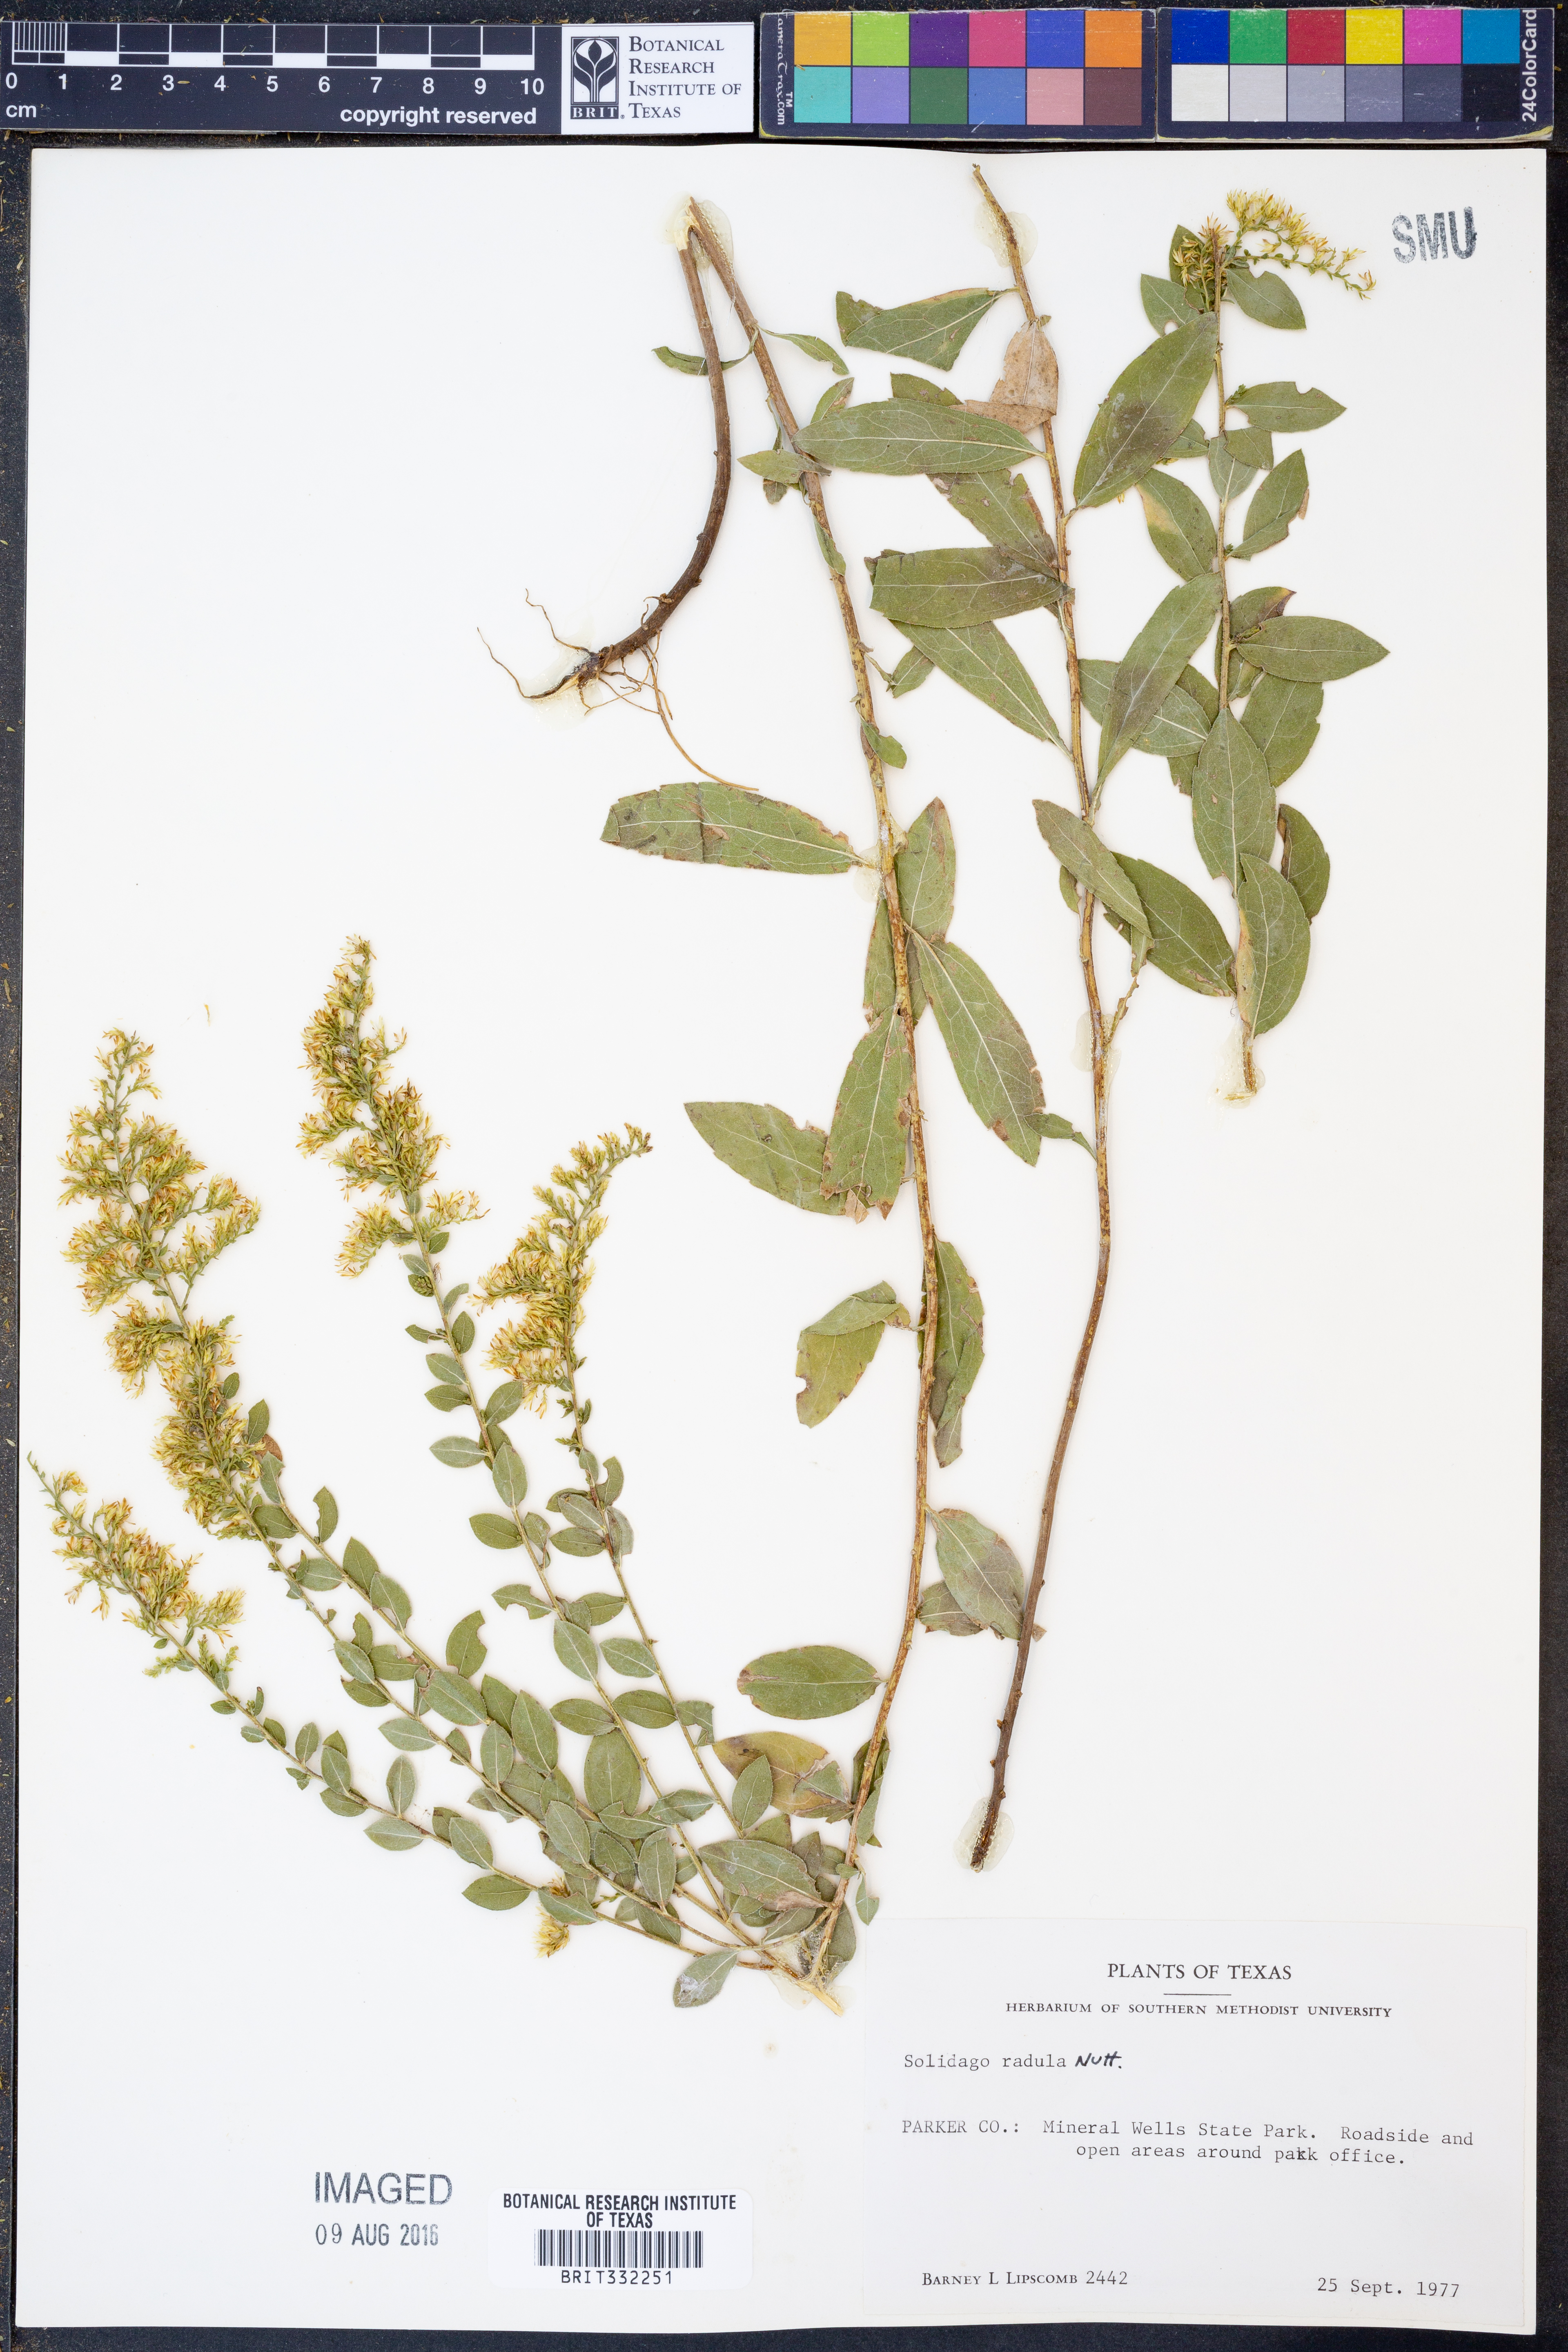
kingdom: Plantae
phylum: Tracheophyta
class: Magnoliopsida
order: Asterales
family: Asteraceae
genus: Solidago
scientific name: Solidago radula
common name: Western rough goldenrod
